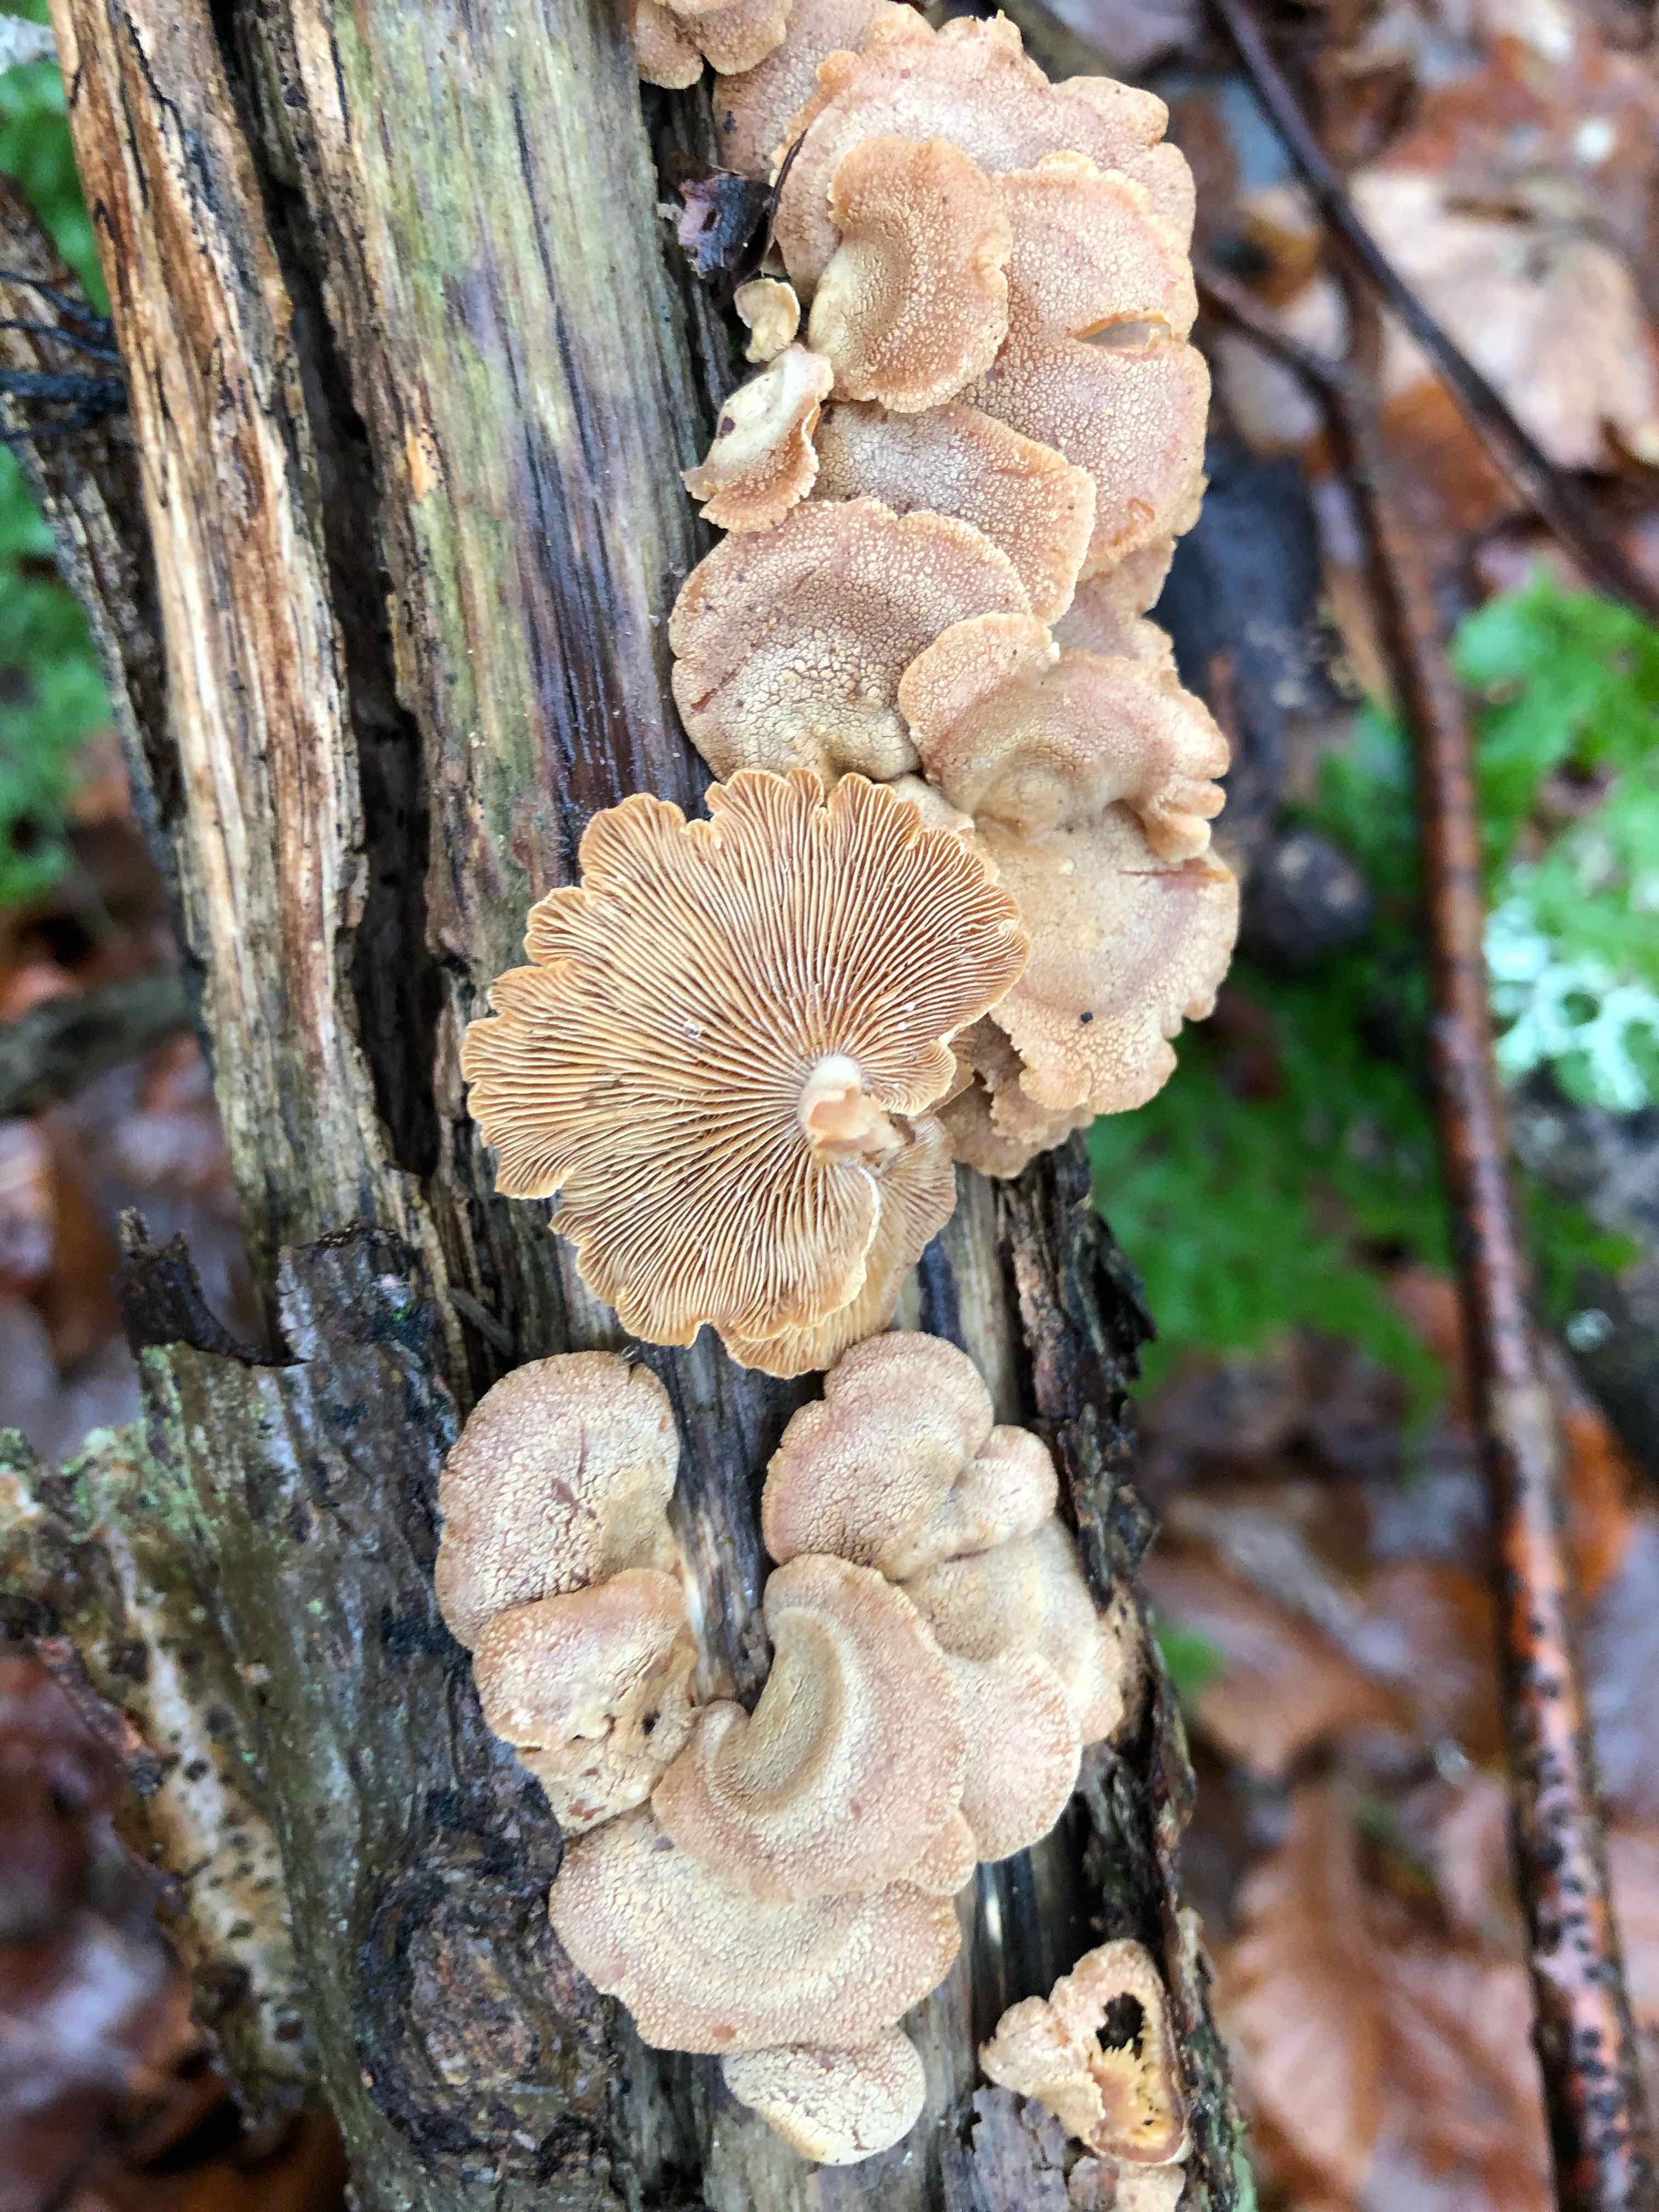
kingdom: Fungi
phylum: Basidiomycota
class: Agaricomycetes
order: Agaricales
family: Mycenaceae
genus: Panellus
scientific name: Panellus stipticus
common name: kliddet epaulethat
